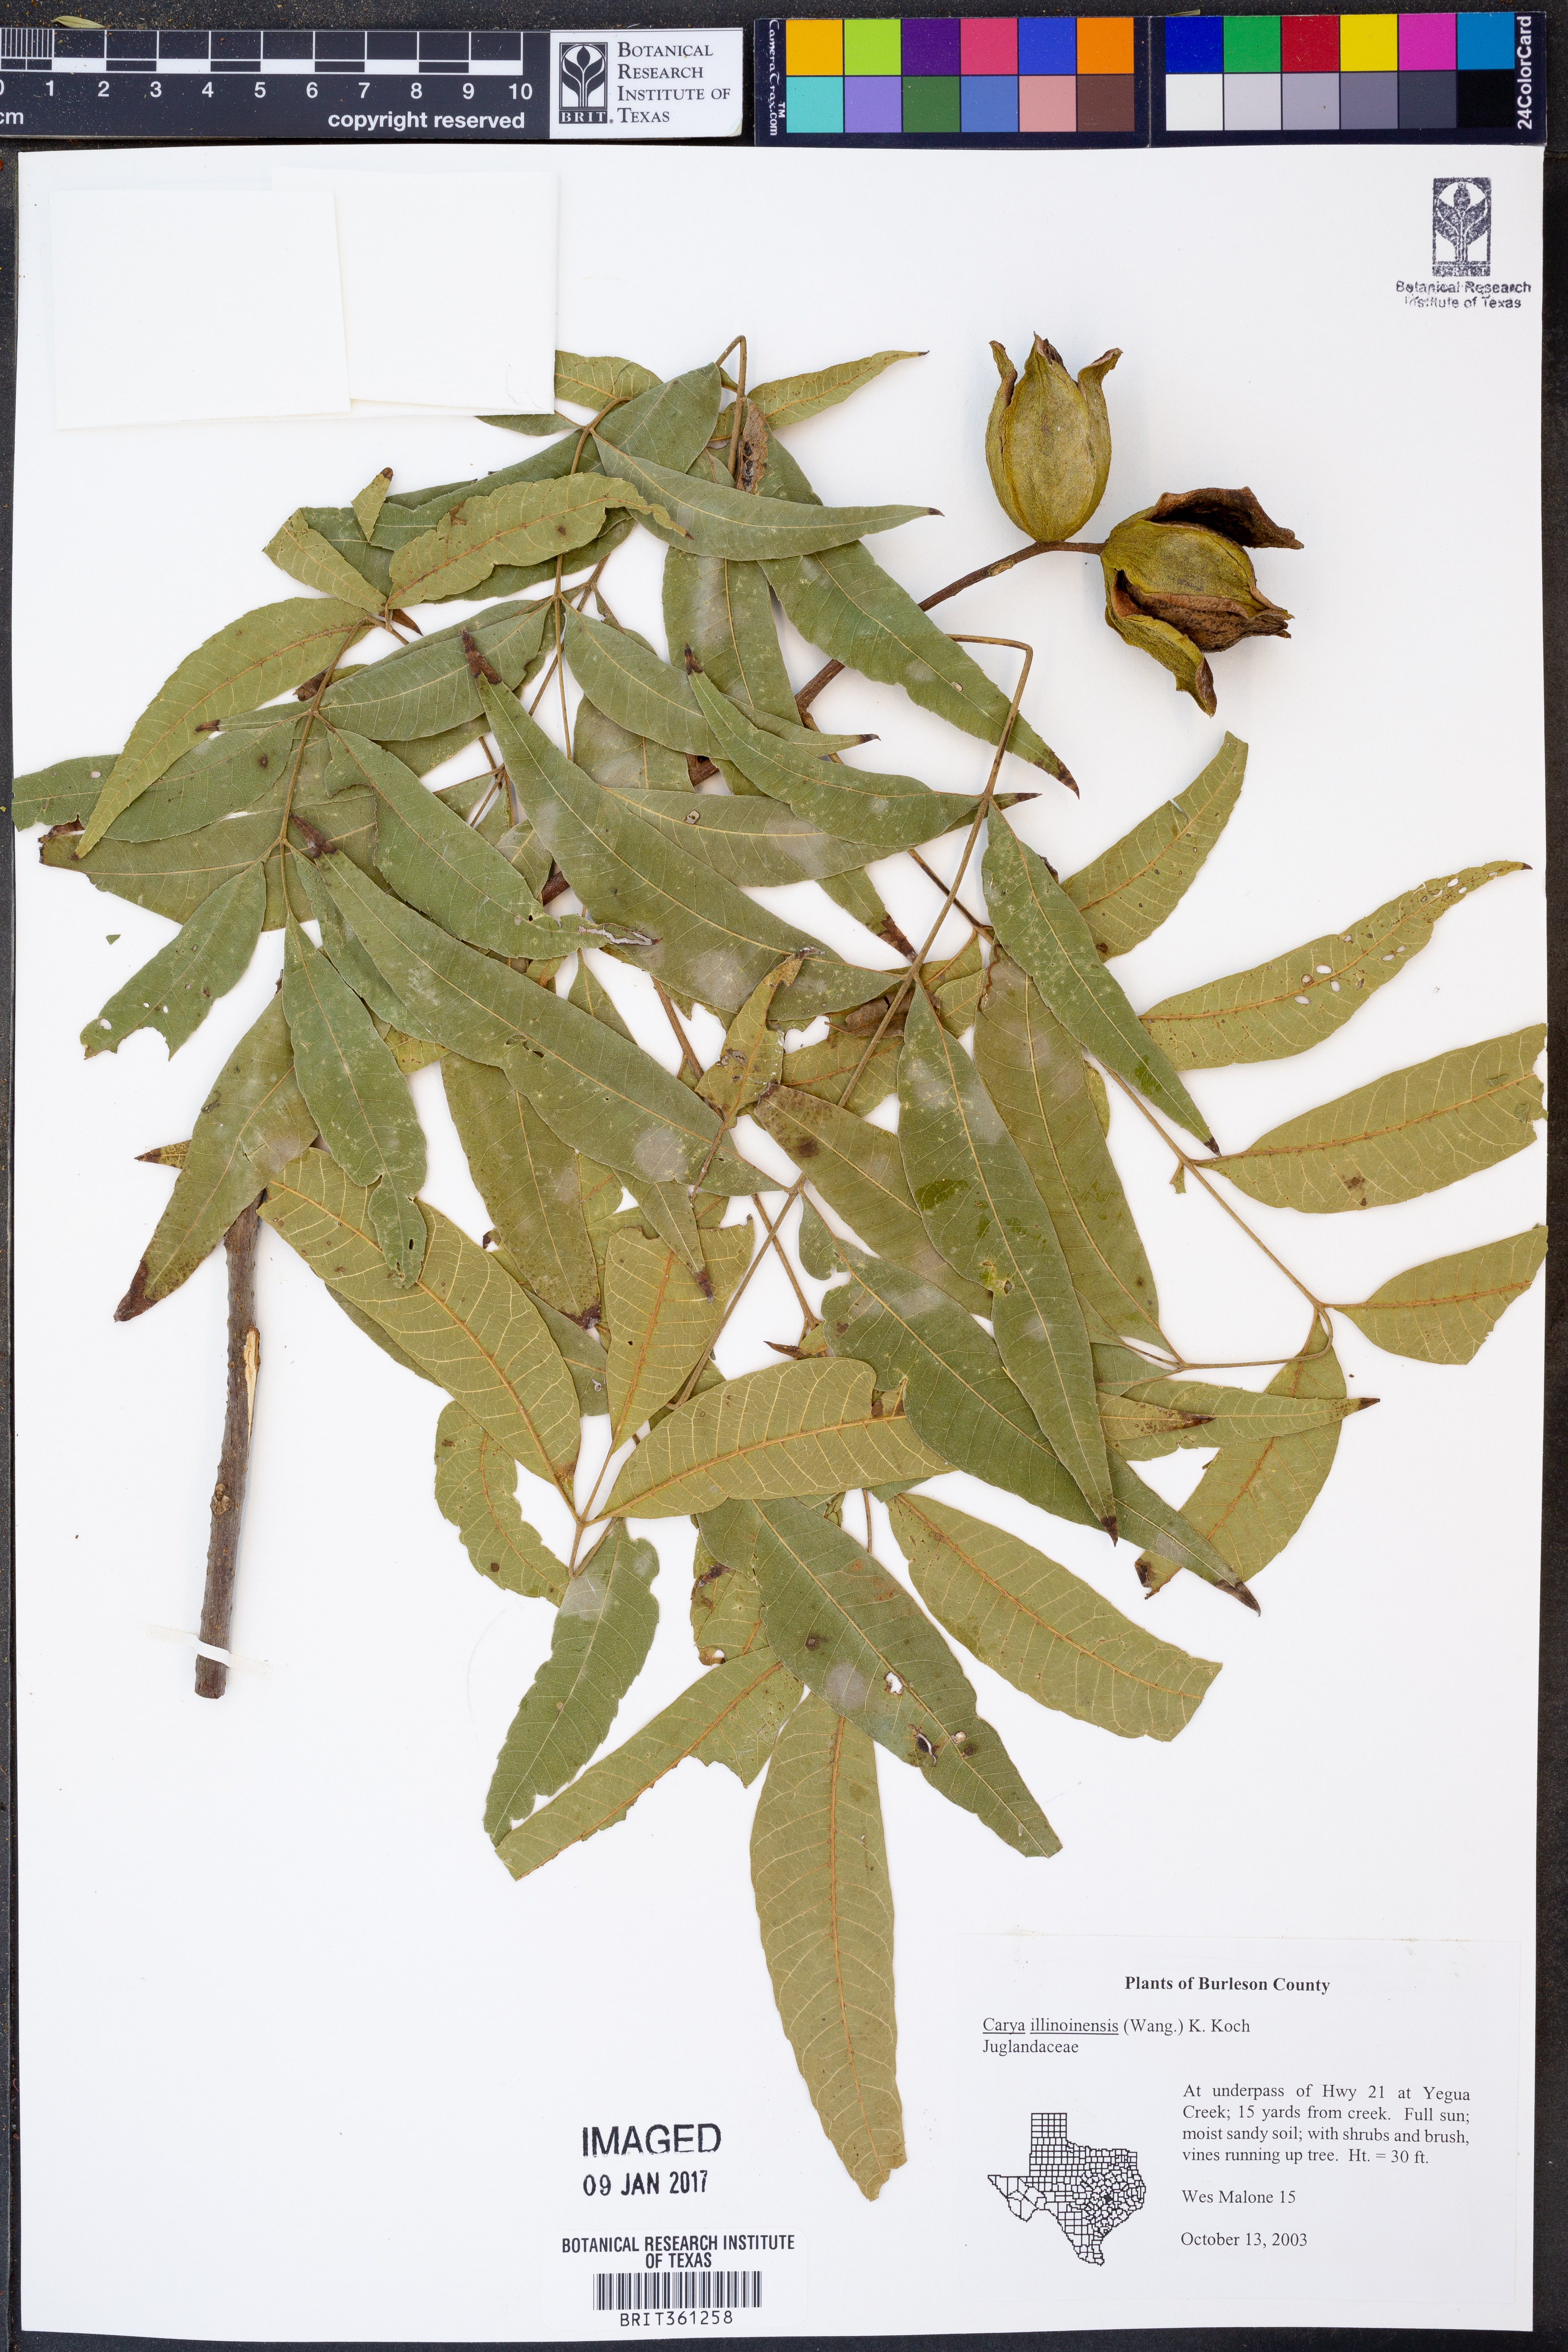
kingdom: Plantae
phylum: Tracheophyta
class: Magnoliopsida
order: Fagales
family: Juglandaceae
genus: Carya
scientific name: Carya illinoinensis
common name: Pecan
